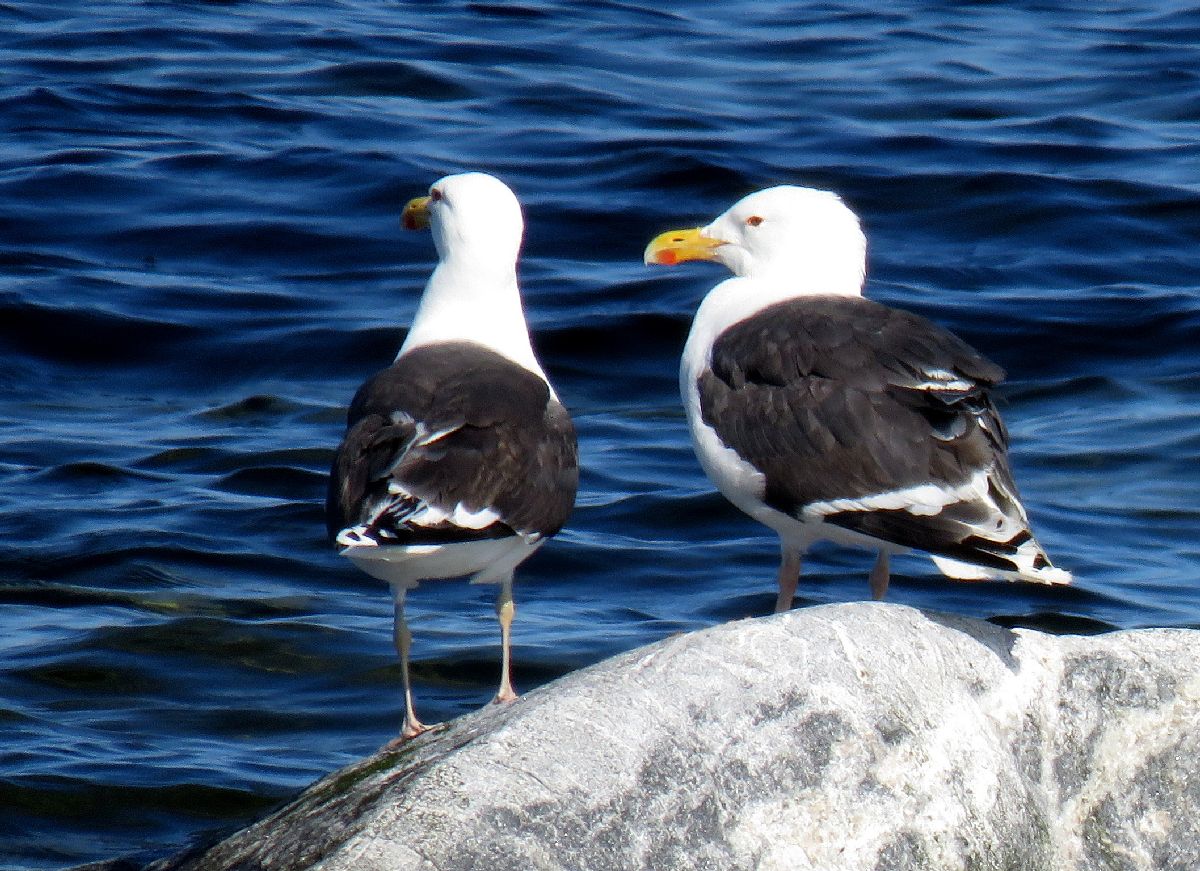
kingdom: Animalia
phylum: Chordata
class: Aves
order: Charadriiformes
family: Laridae
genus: Larus
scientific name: Larus marinus
